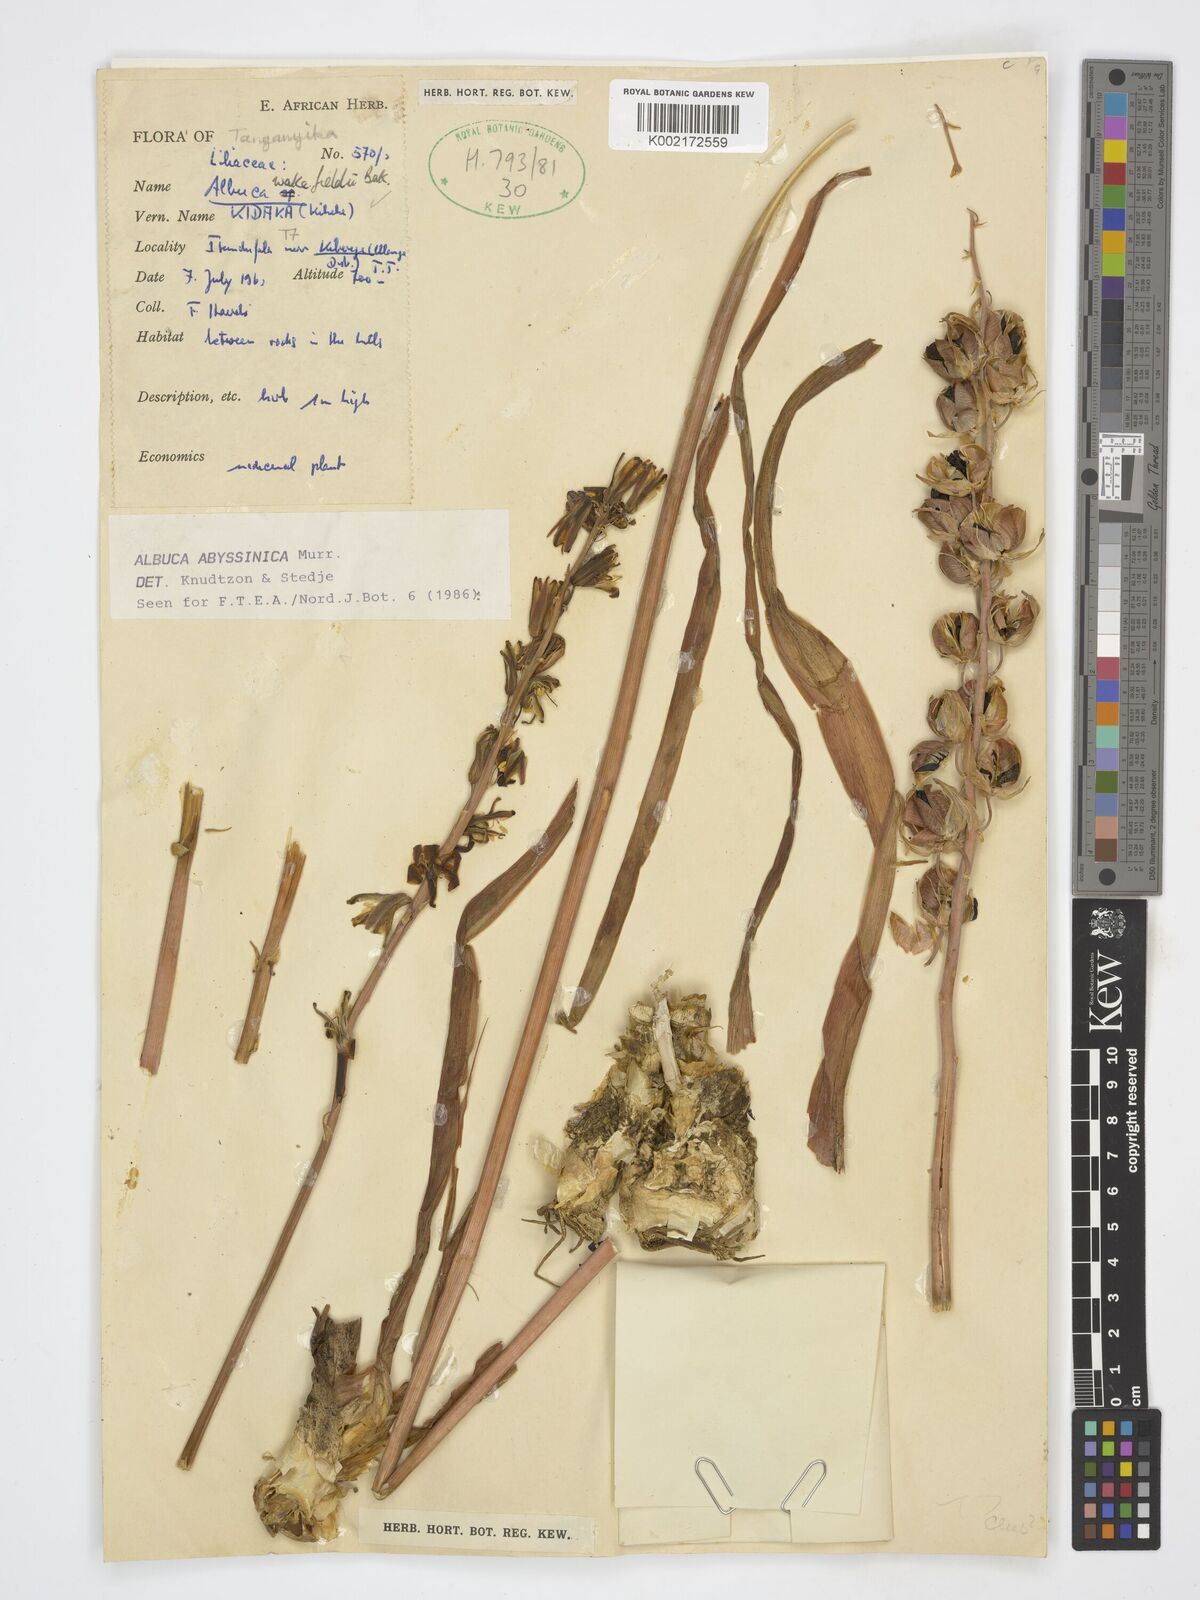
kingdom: Plantae
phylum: Tracheophyta
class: Liliopsida
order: Asparagales
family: Asparagaceae
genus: Albuca
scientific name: Albuca abyssinica
